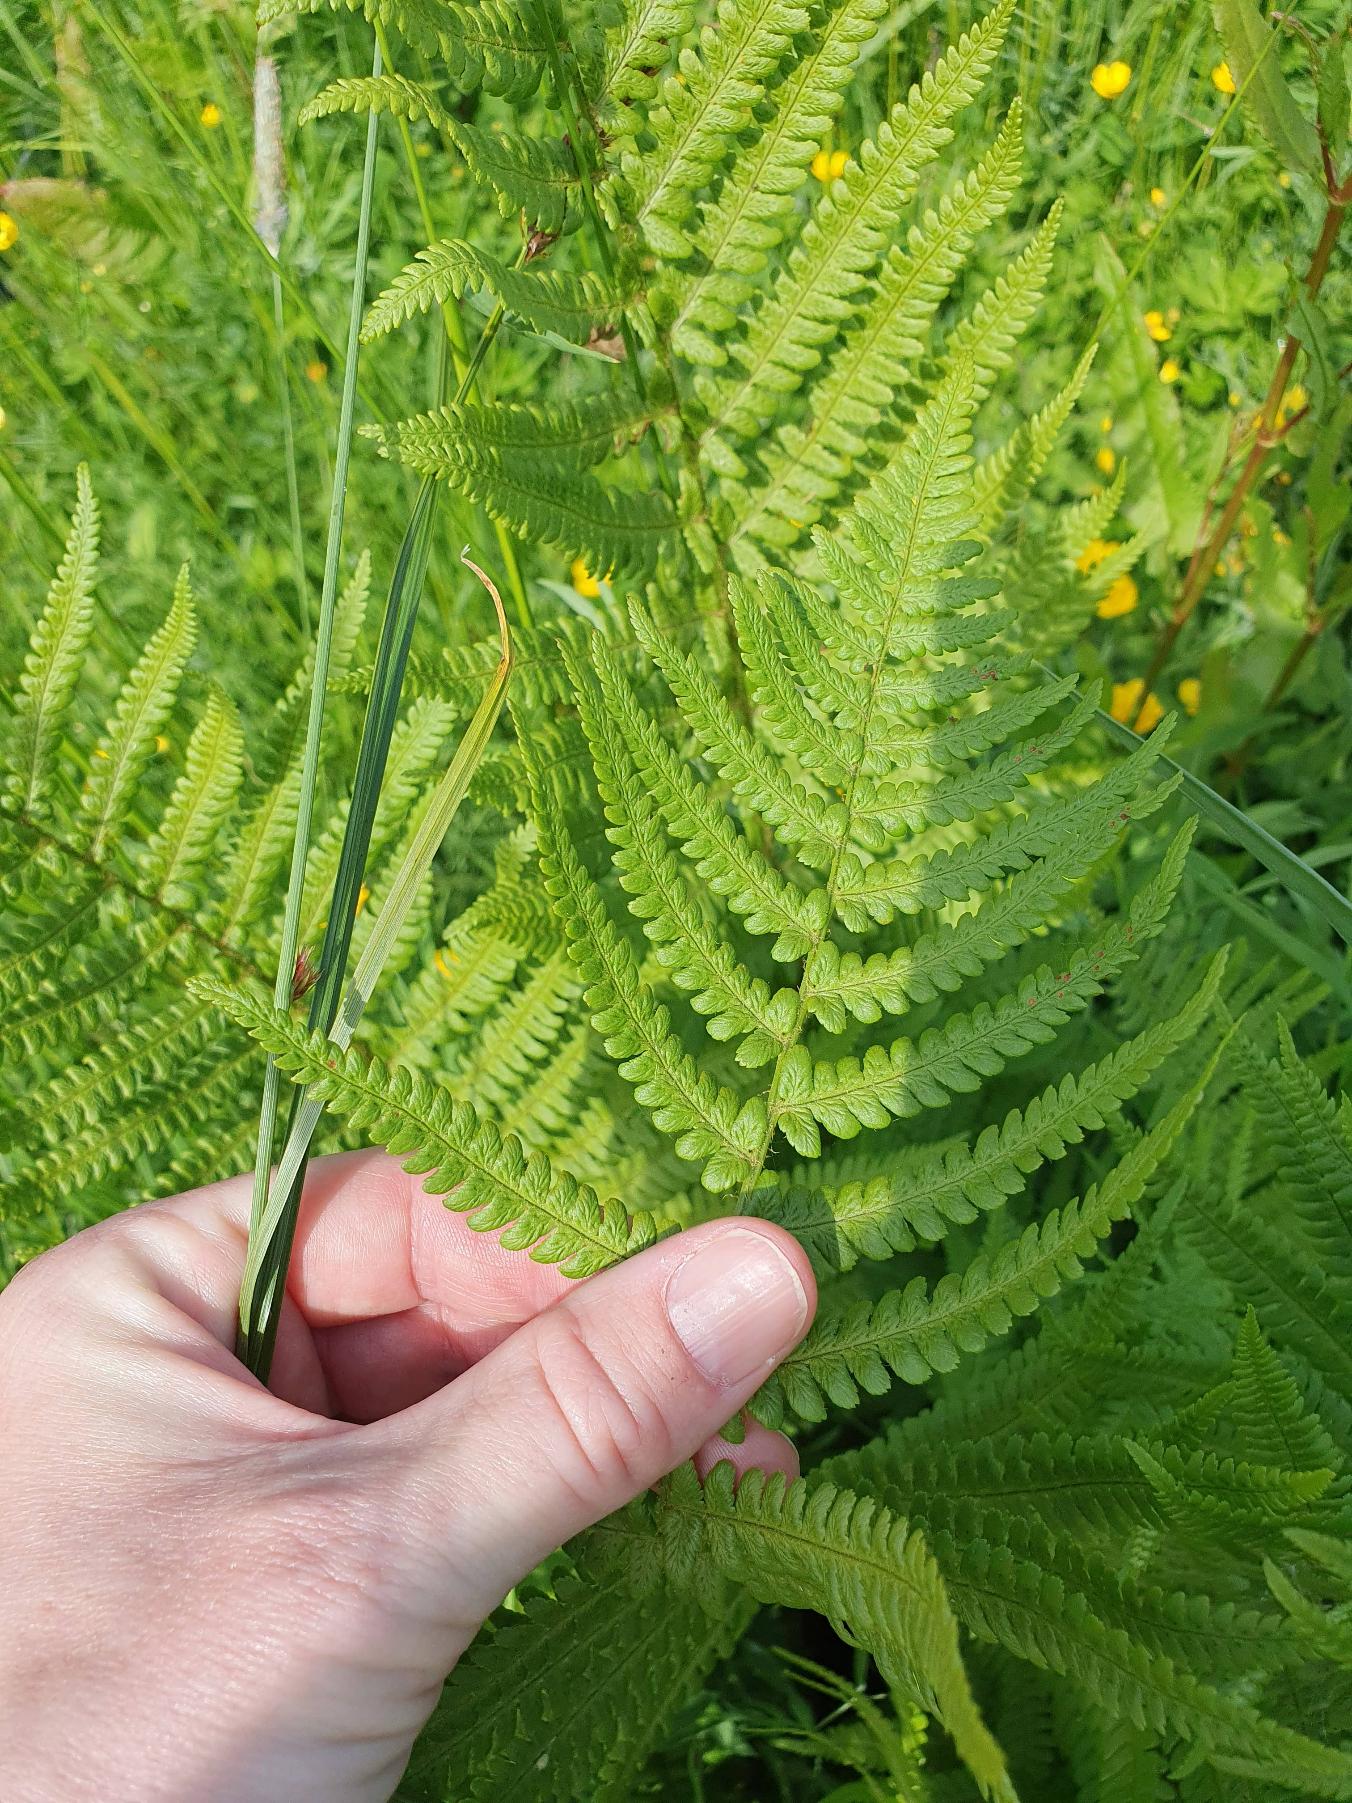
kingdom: Plantae
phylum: Tracheophyta
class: Polypodiopsida
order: Polypodiales
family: Dryopteridaceae
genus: Dryopteris
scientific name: Dryopteris filix-mas
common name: Almindelig mangeløv
